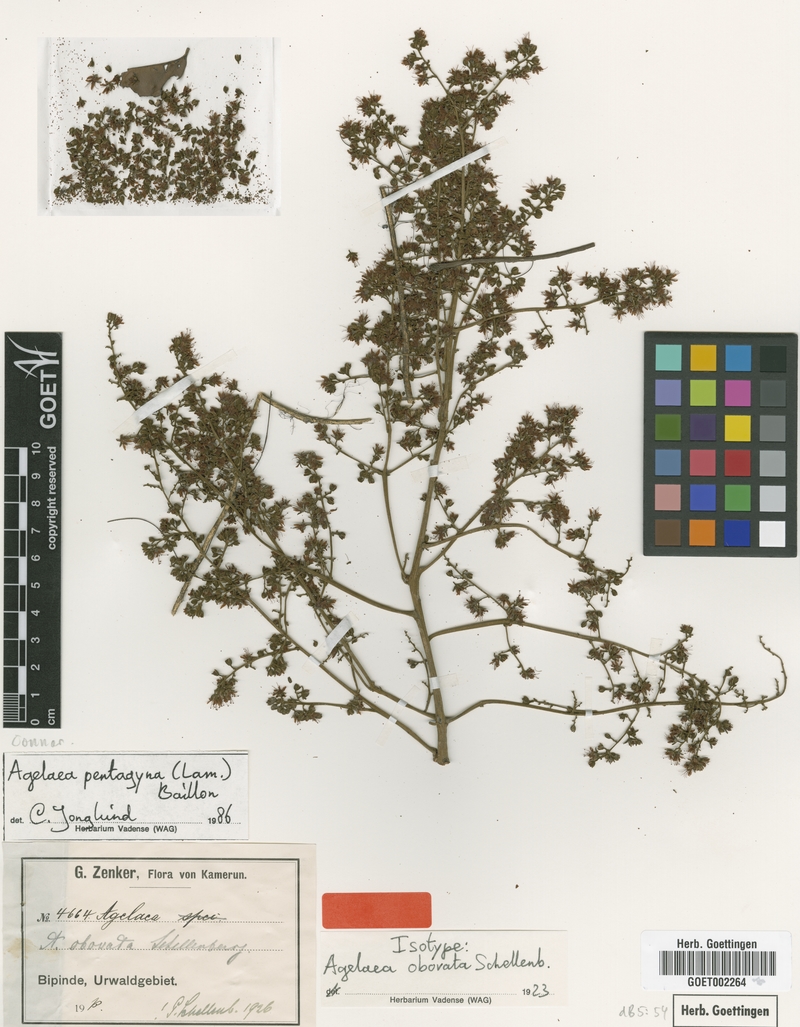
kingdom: Plantae
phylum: Tracheophyta
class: Magnoliopsida
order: Oxalidales
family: Connaraceae
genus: Agelaea
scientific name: Agelaea pentagyna
